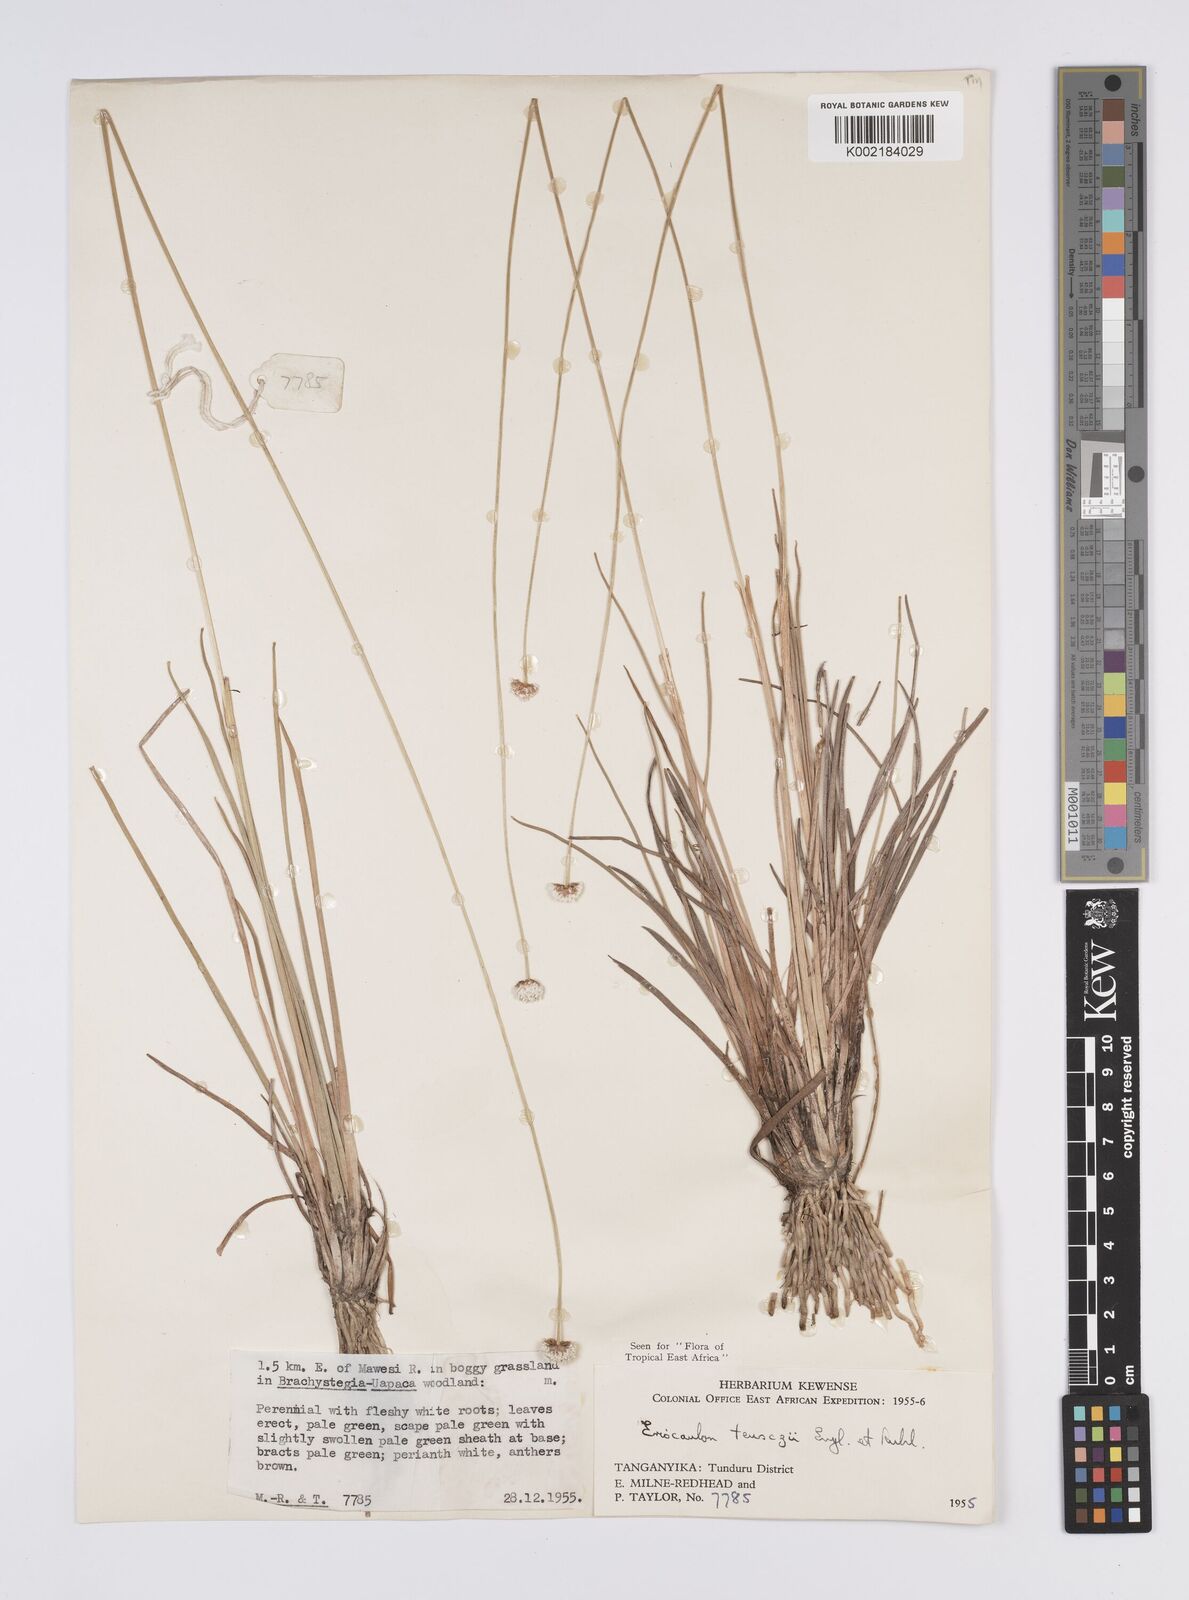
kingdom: Plantae
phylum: Tracheophyta
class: Liliopsida
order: Poales
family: Eriocaulaceae
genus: Eriocaulon
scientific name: Eriocaulon teusczii
